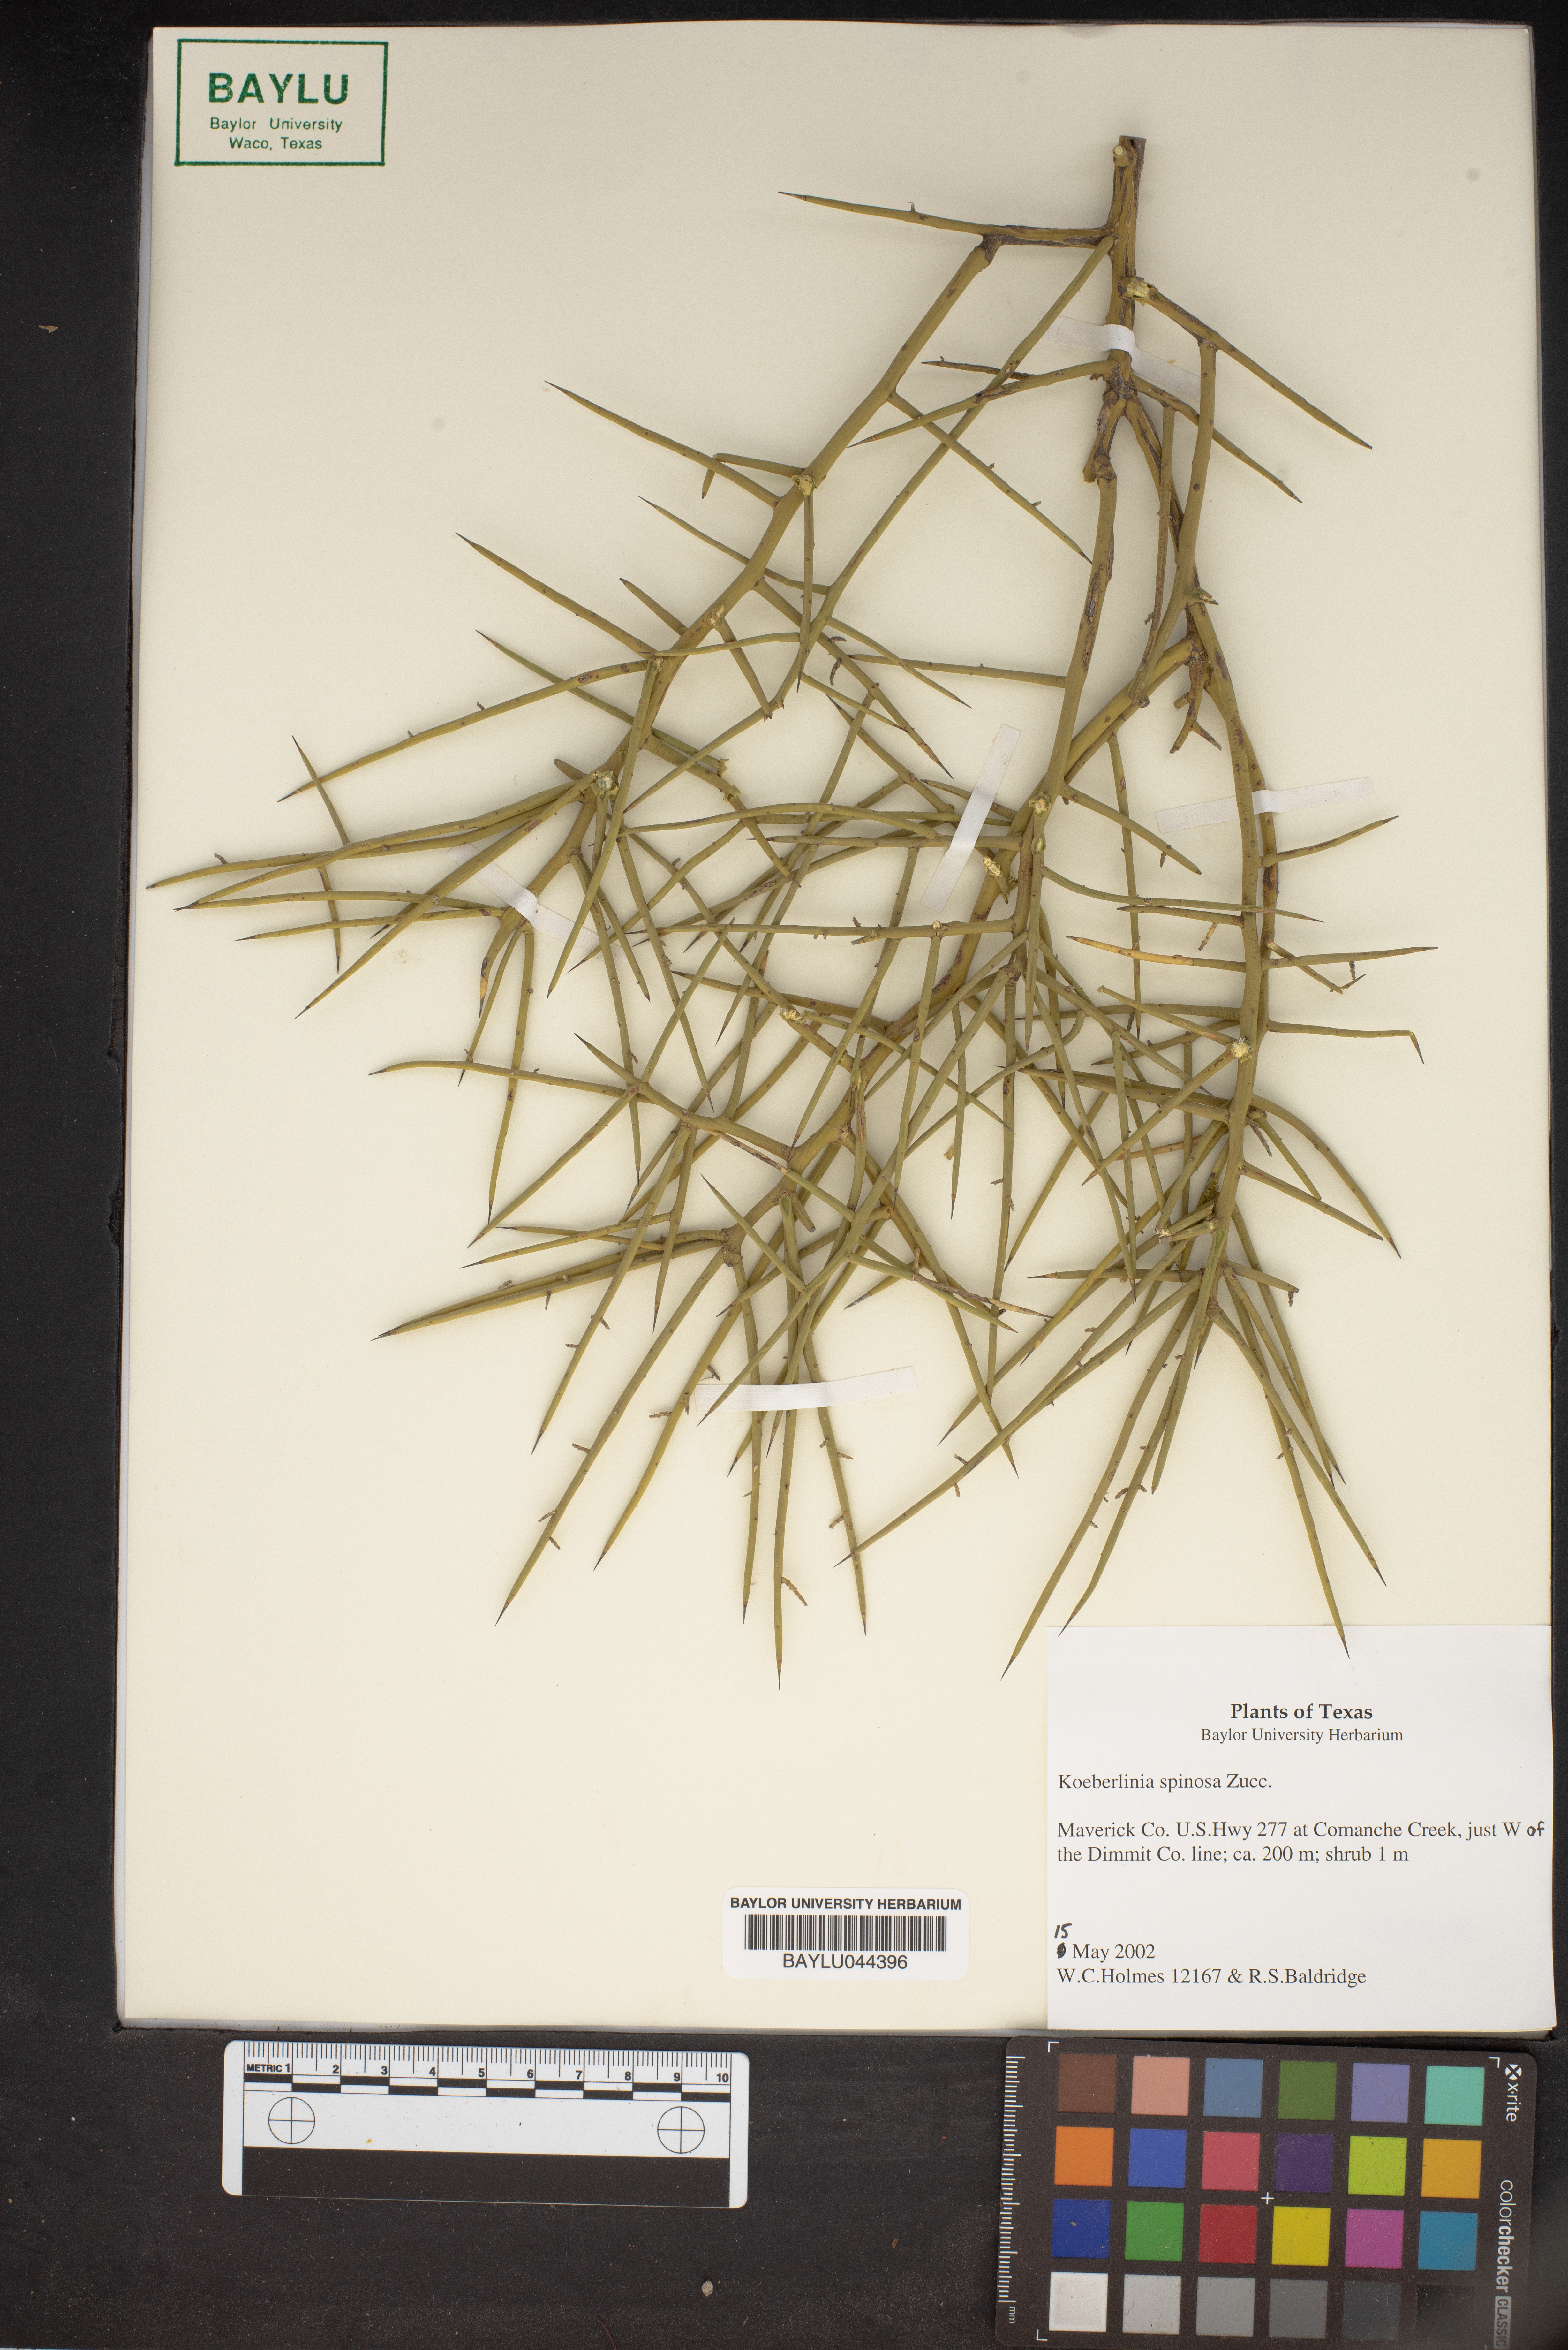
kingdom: Plantae
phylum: Tracheophyta
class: Magnoliopsida
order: Brassicales
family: Koeberliniaceae
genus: Koeberlinia
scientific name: Koeberlinia spinosa
